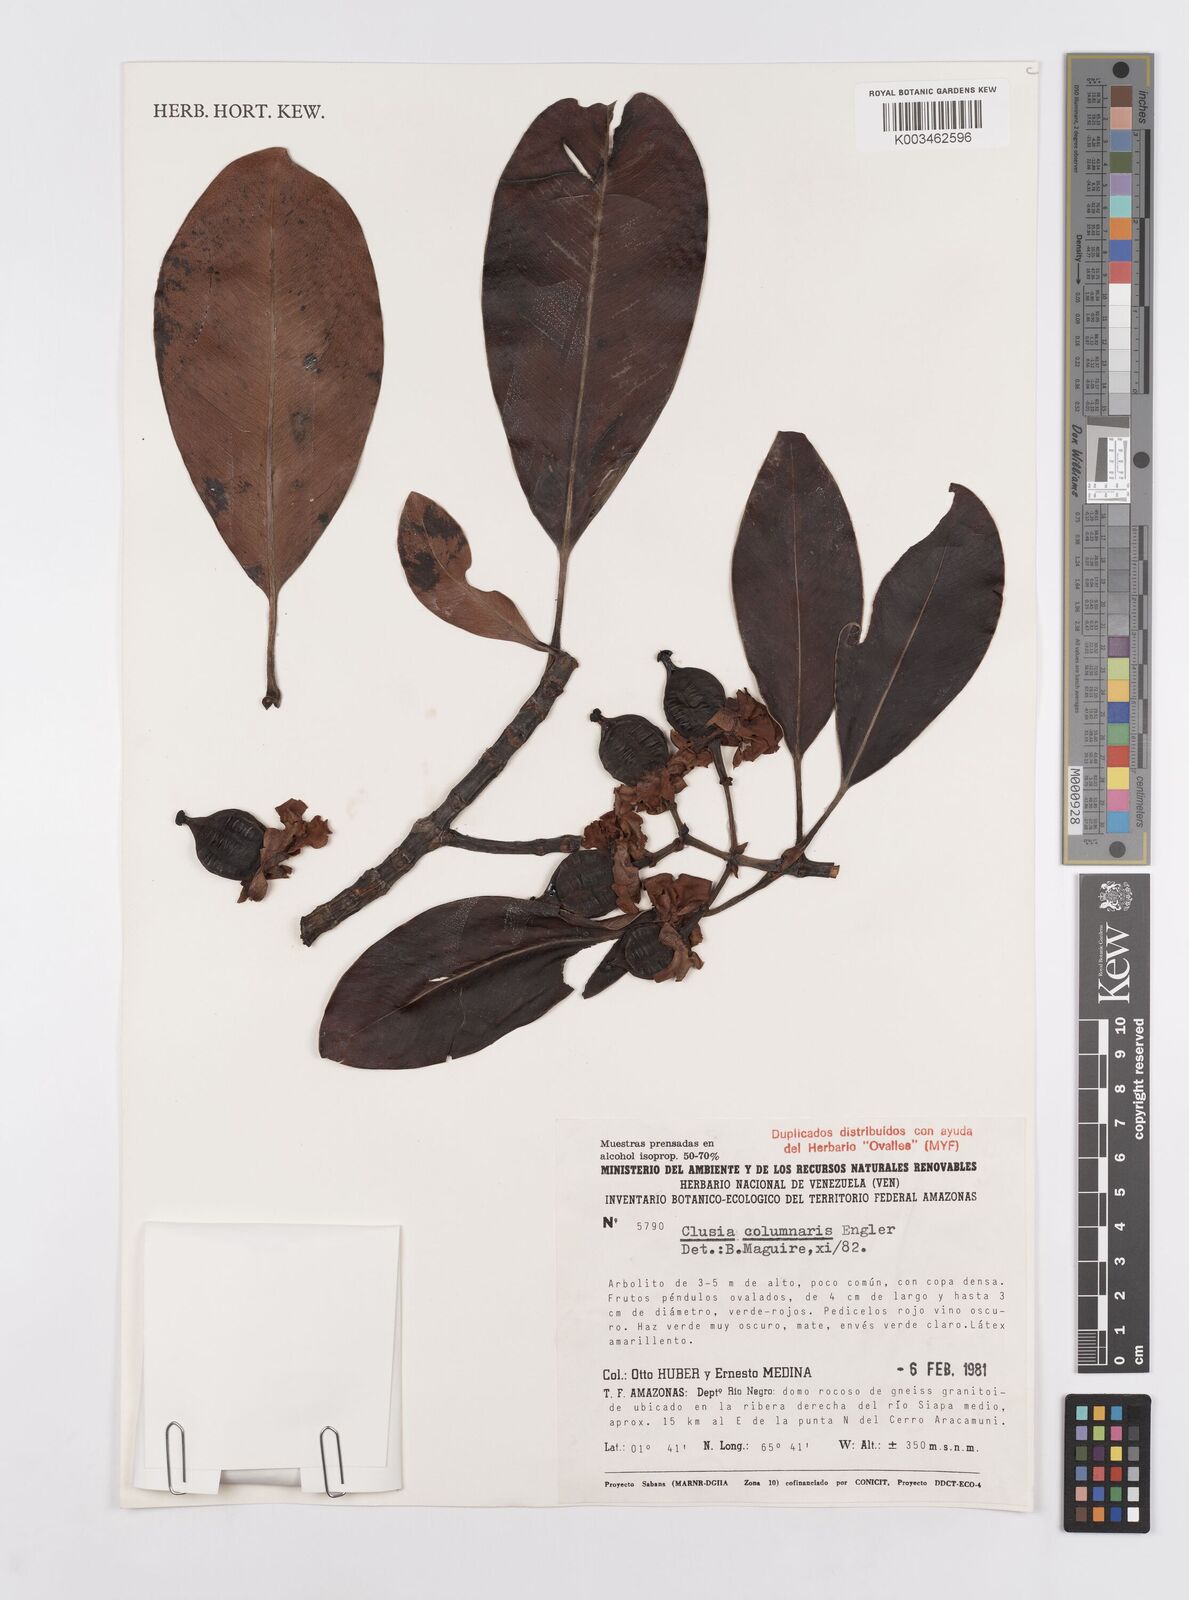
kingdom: Plantae
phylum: Tracheophyta
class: Magnoliopsida
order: Malpighiales
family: Clusiaceae
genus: Clusia
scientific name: Clusia columnaris
